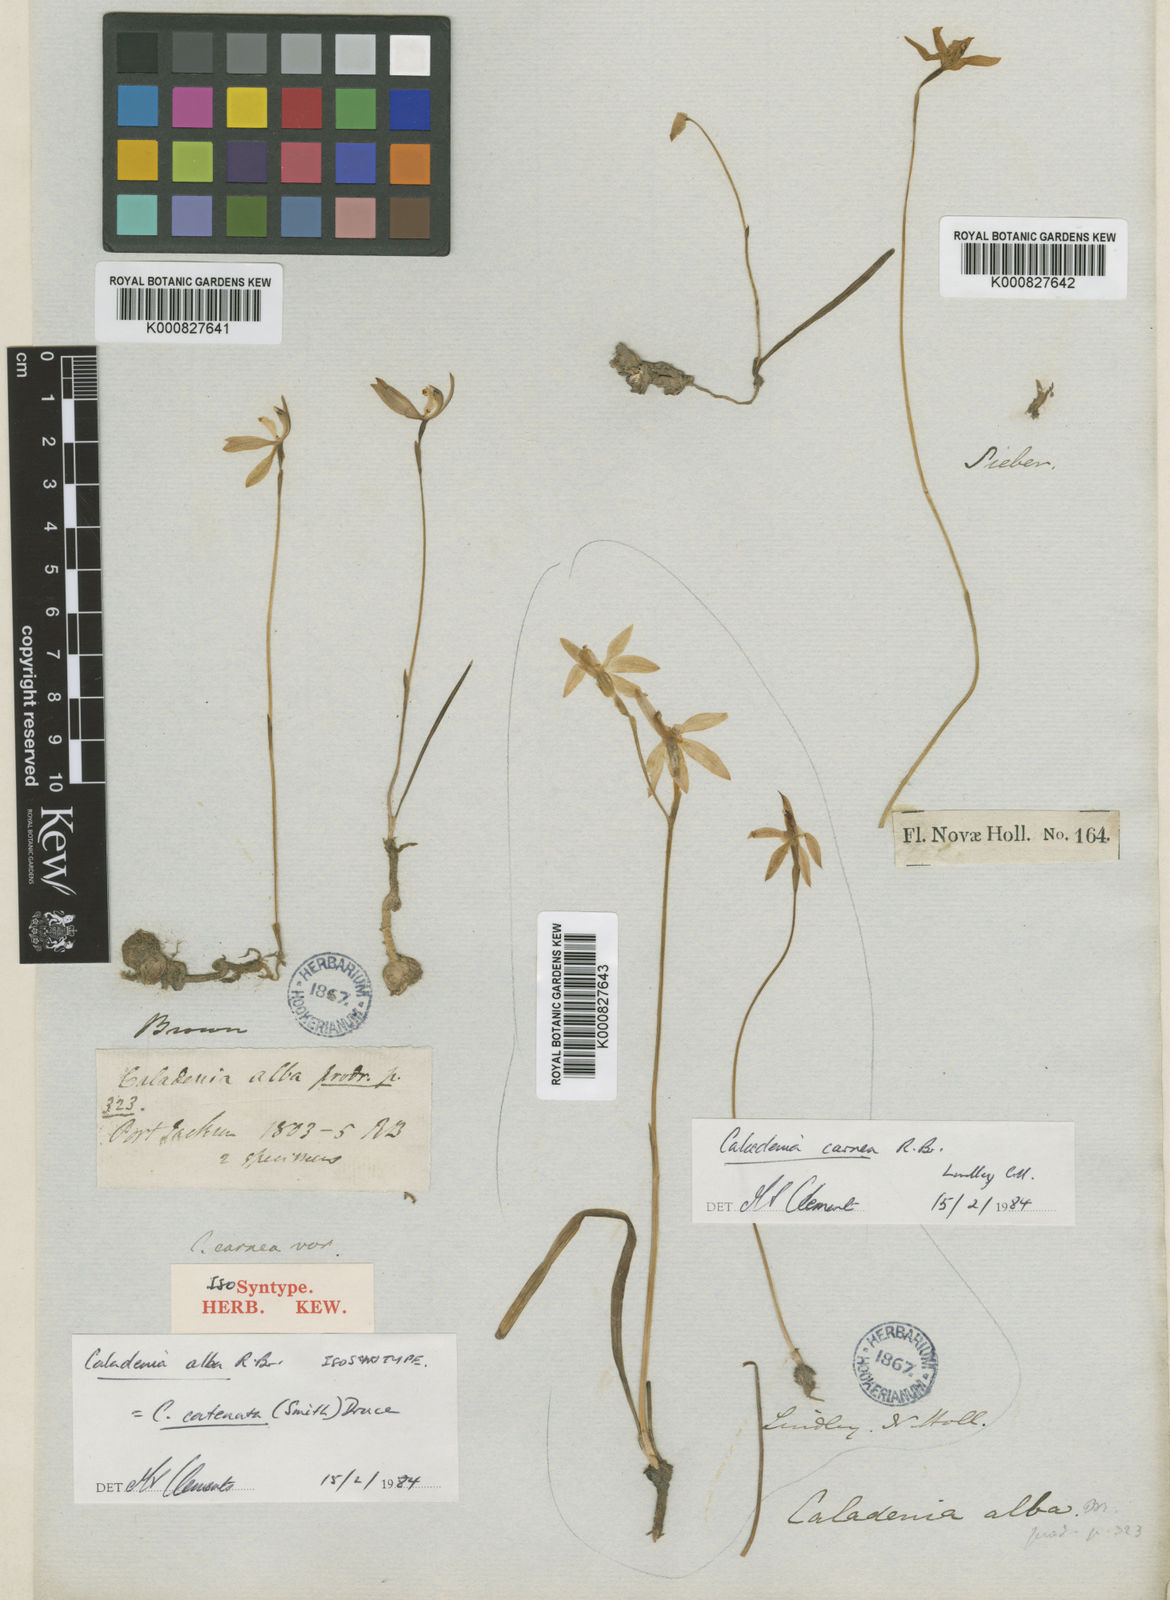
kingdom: Plantae
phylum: Tracheophyta
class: Liliopsida
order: Asparagales
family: Orchidaceae
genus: Caladenia
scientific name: Caladenia catenata
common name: White caladenia
